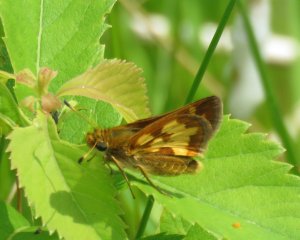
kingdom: Animalia
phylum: Arthropoda
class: Insecta
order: Lepidoptera
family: Hesperiidae
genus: Polites
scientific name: Polites coras
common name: Peck's Skipper
